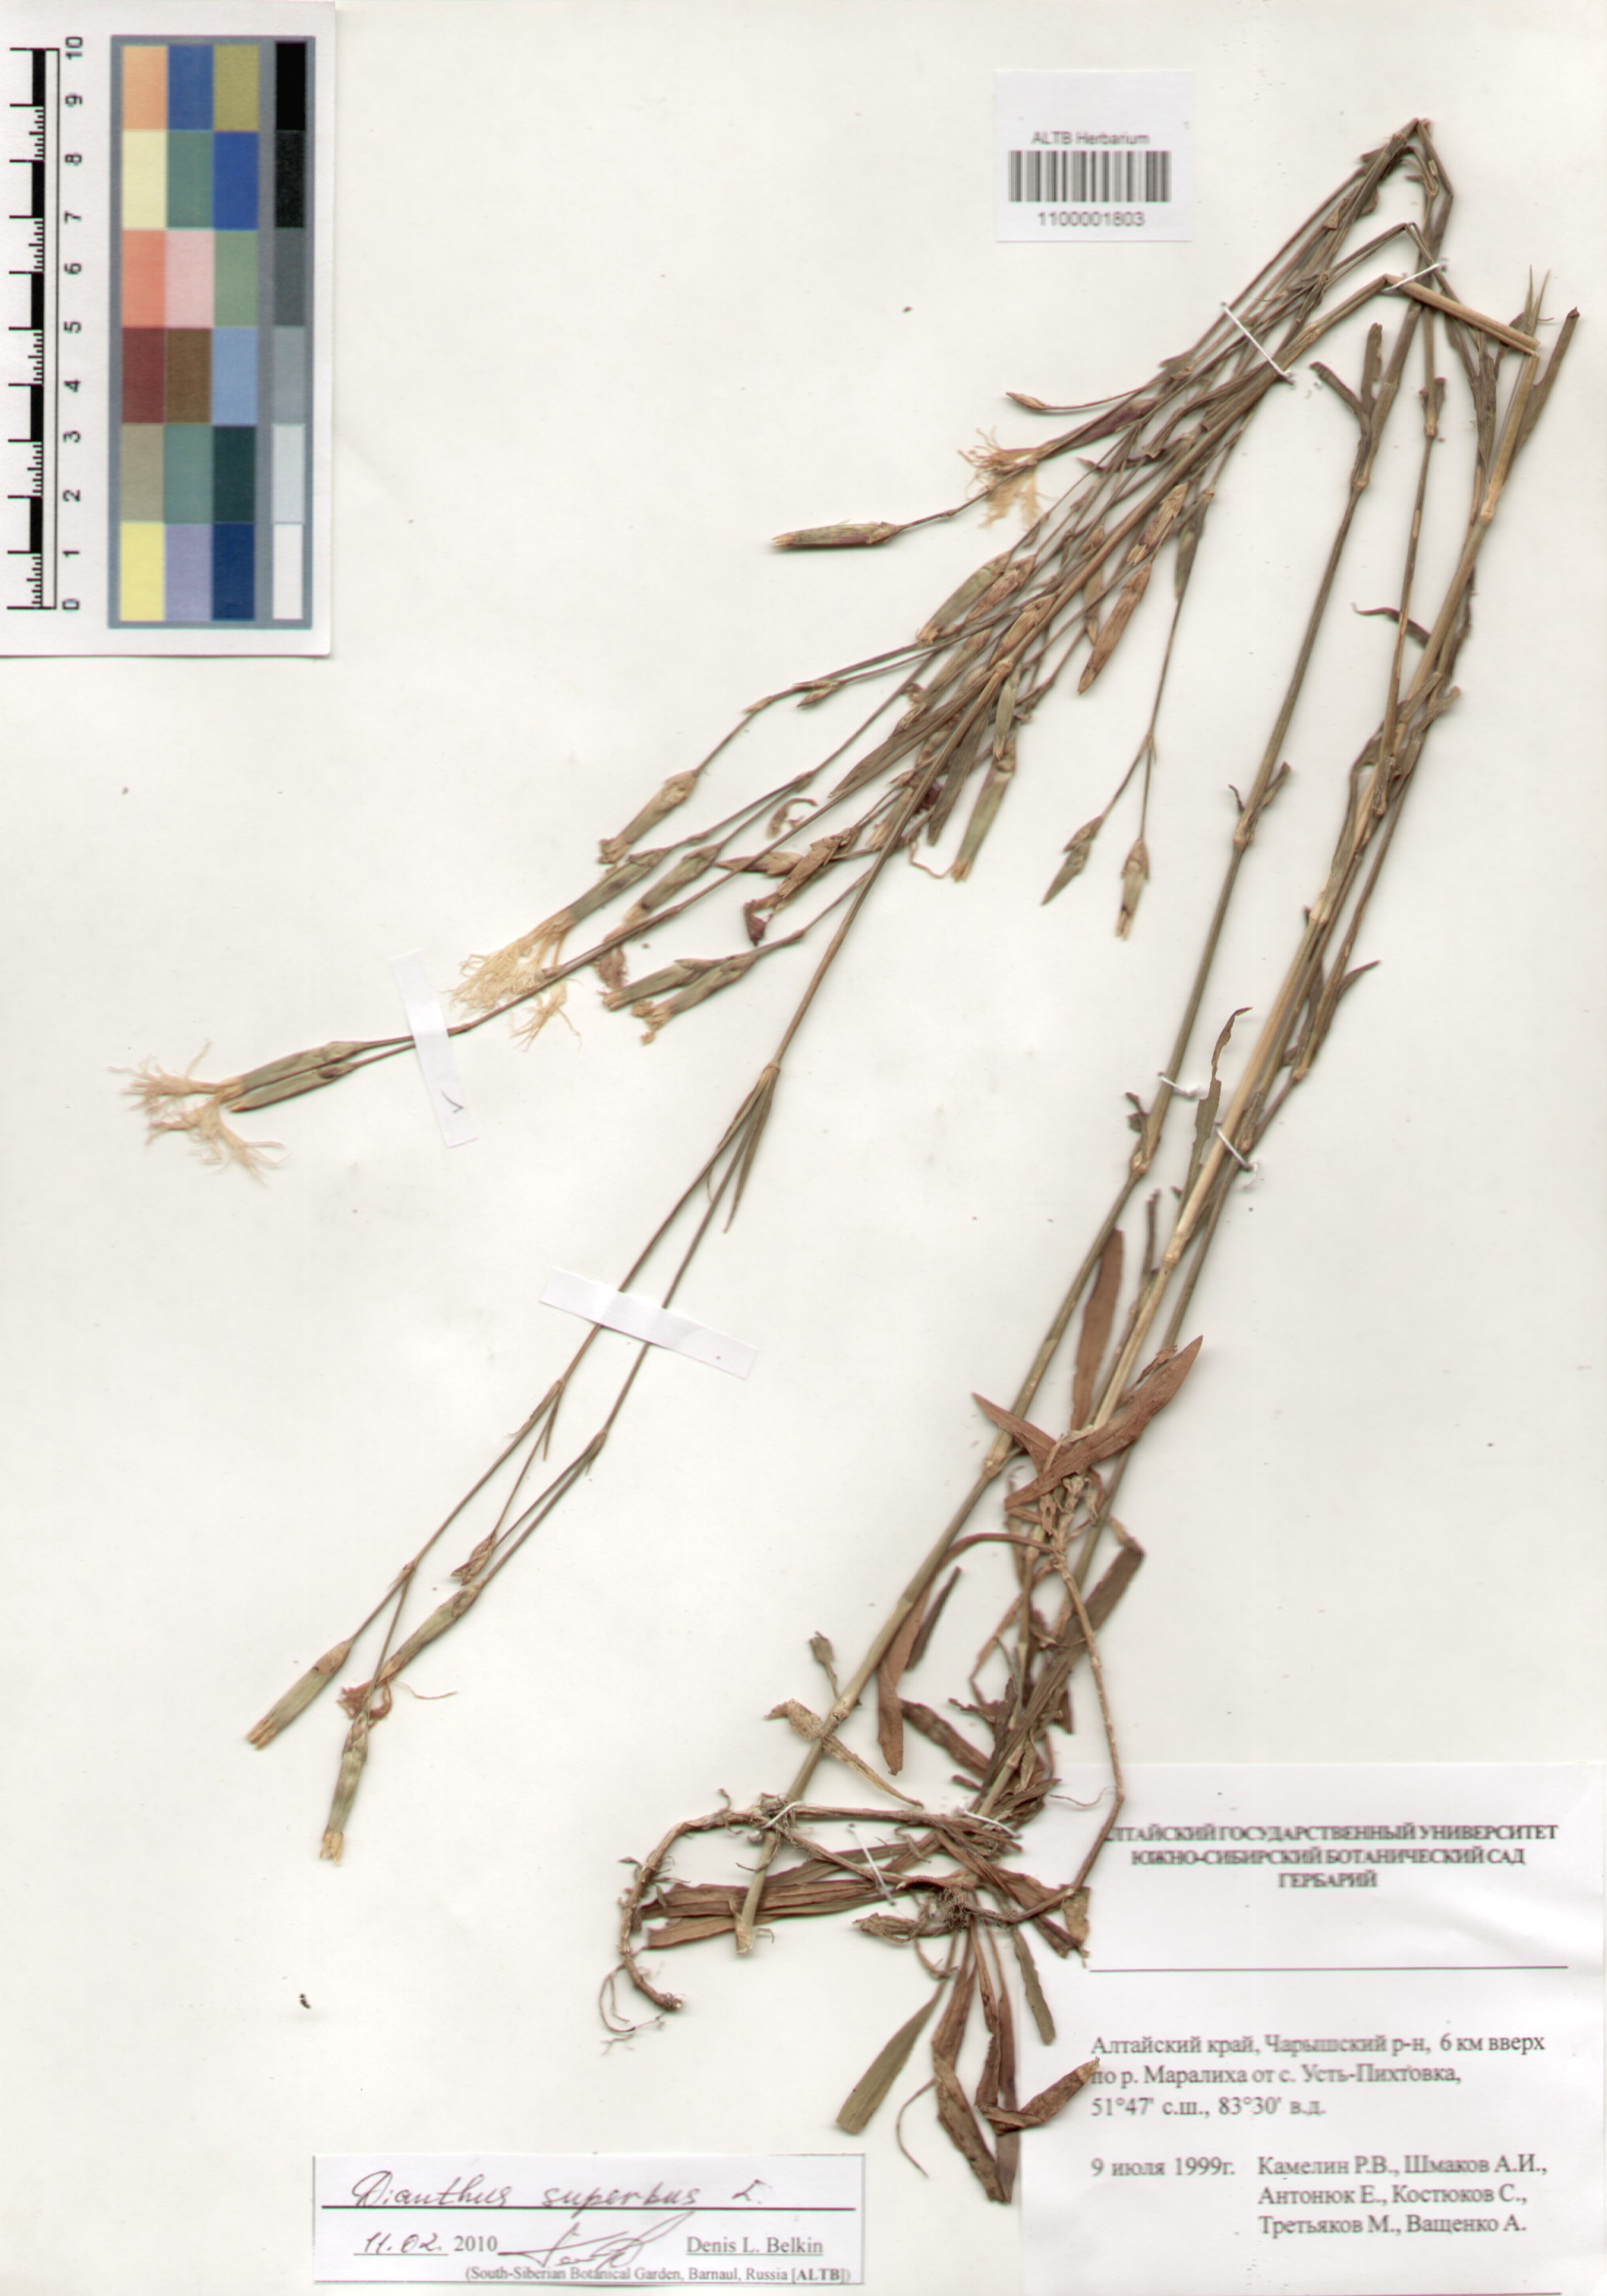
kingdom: Plantae
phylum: Tracheophyta
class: Magnoliopsida
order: Caryophyllales
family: Caryophyllaceae
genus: Dianthus
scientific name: Dianthus superbus
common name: Fringed pink
